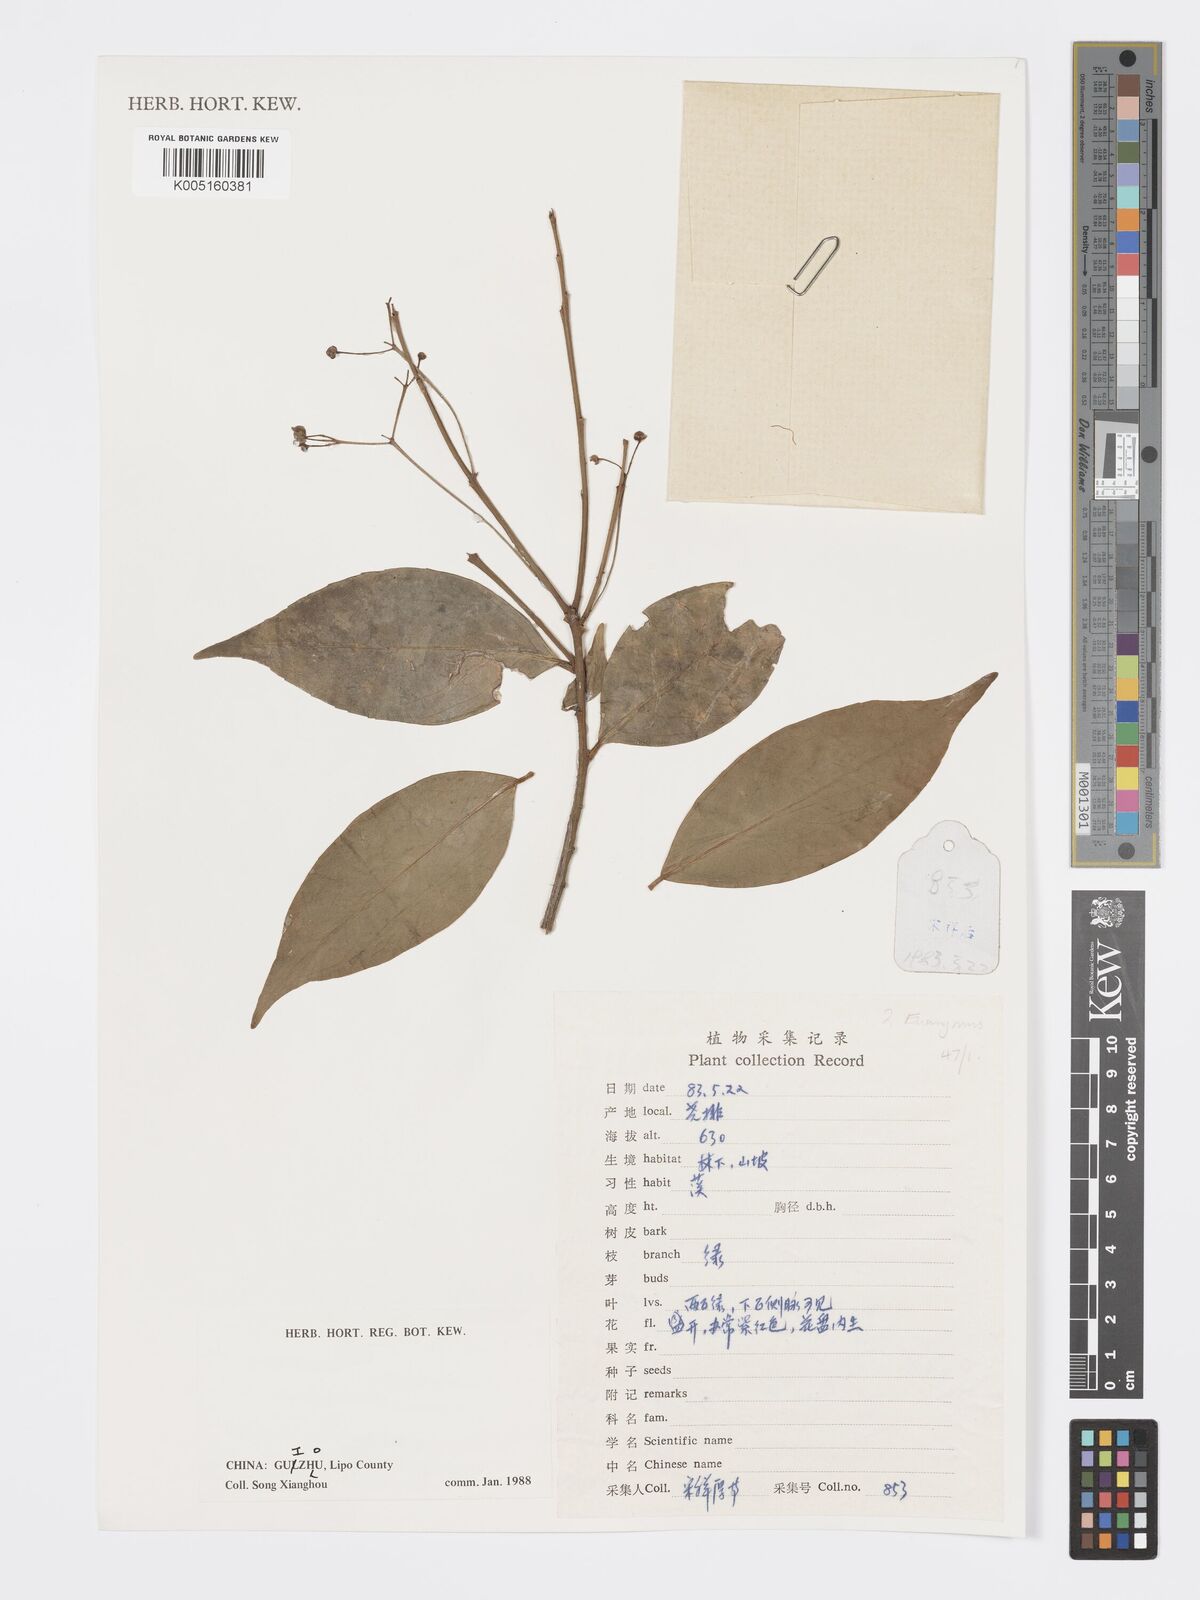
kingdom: Plantae
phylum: Tracheophyta
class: Magnoliopsida
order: Celastrales
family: Celastraceae
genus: Euonymus
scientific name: Euonymus
